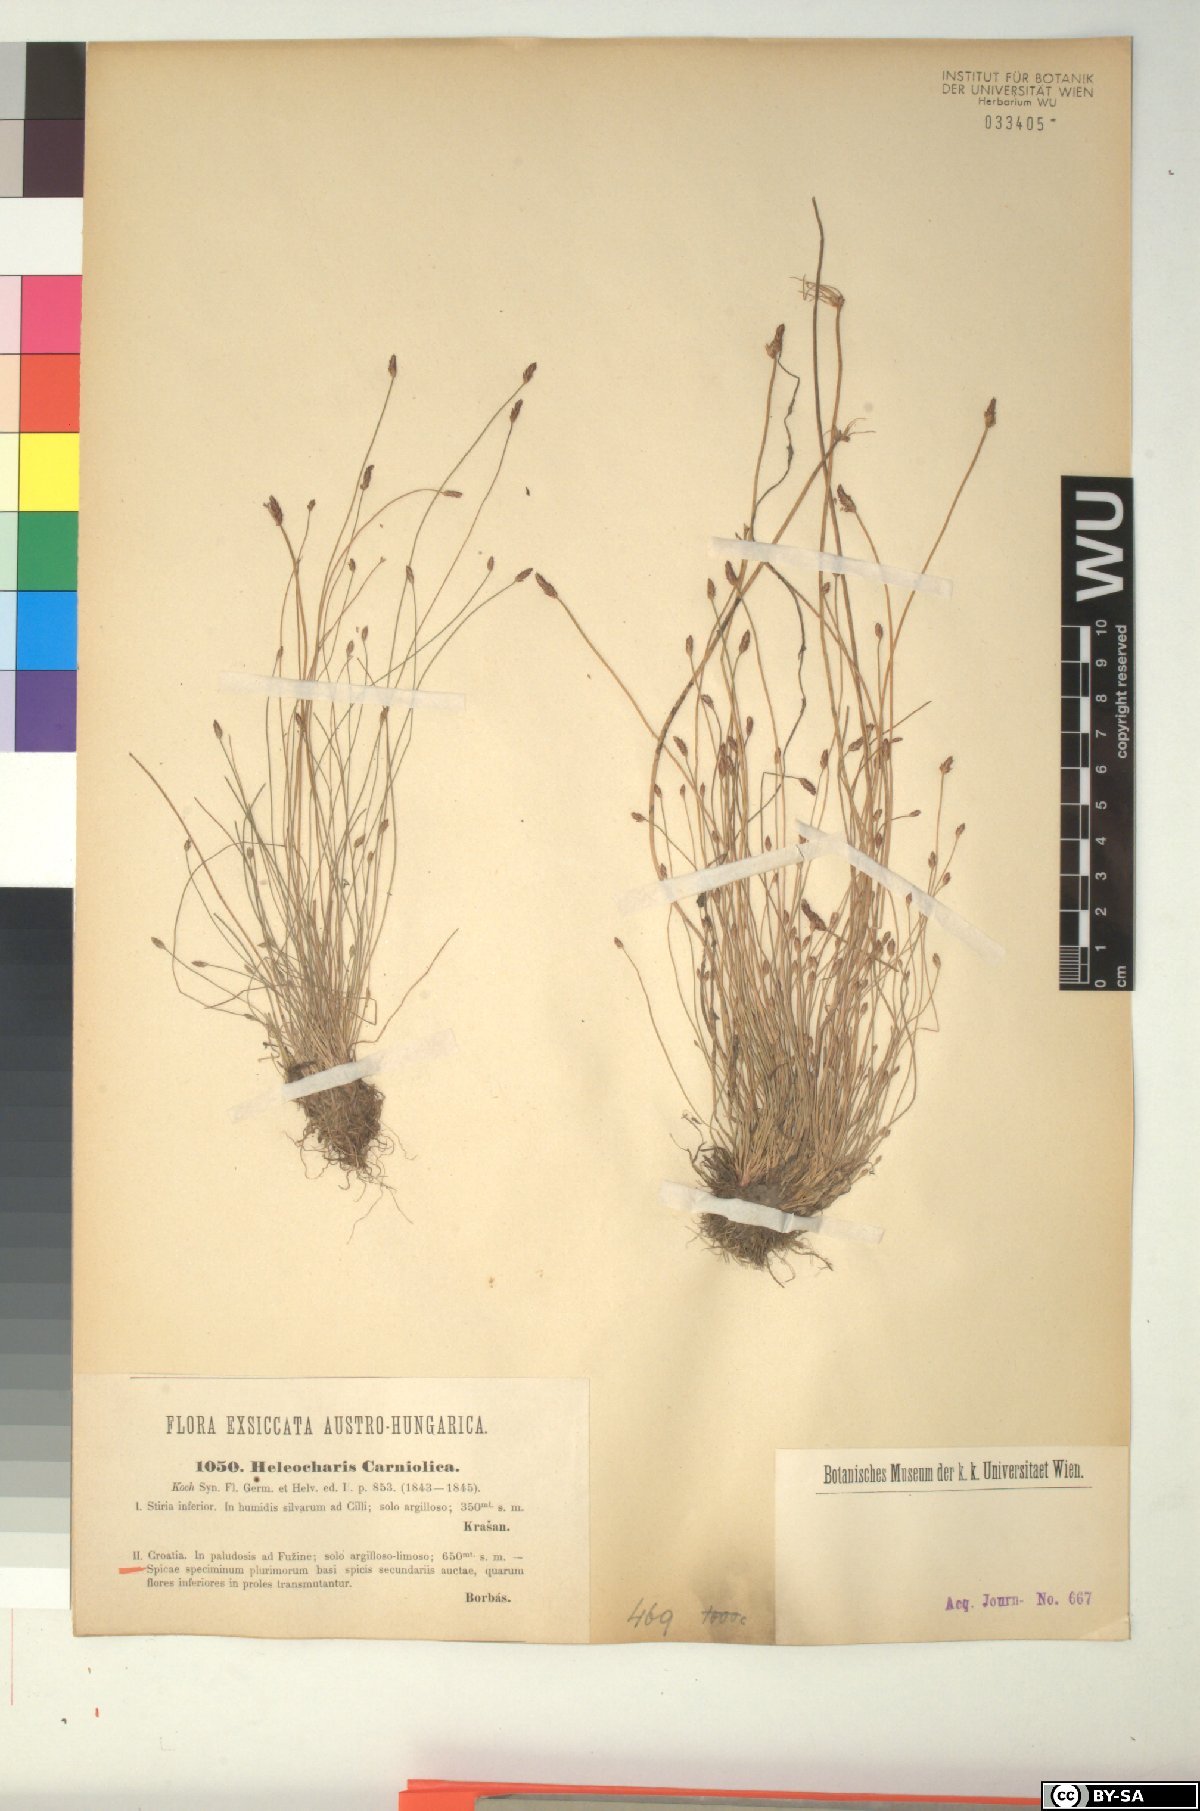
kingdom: Plantae
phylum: Tracheophyta
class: Liliopsida
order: Poales
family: Cyperaceae
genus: Eleocharis
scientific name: Eleocharis carniolica
